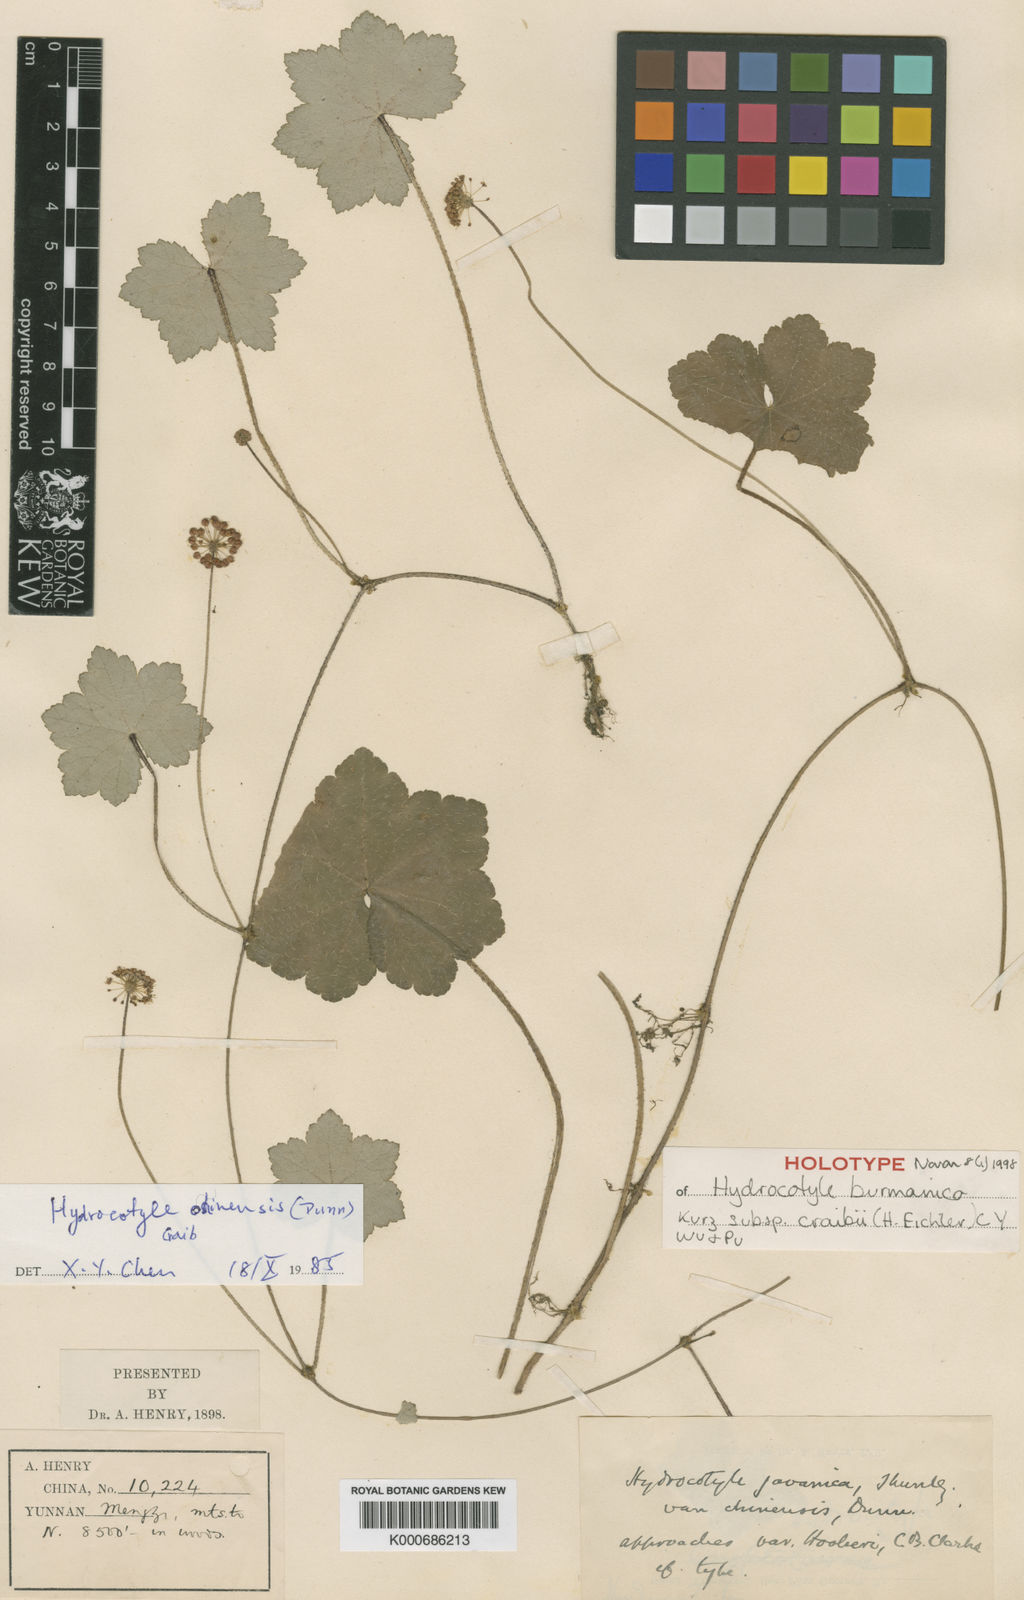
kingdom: Plantae
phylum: Tracheophyta
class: Magnoliopsida
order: Apiales
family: Araliaceae
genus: Hydrocotyle
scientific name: Hydrocotyle hookeri
